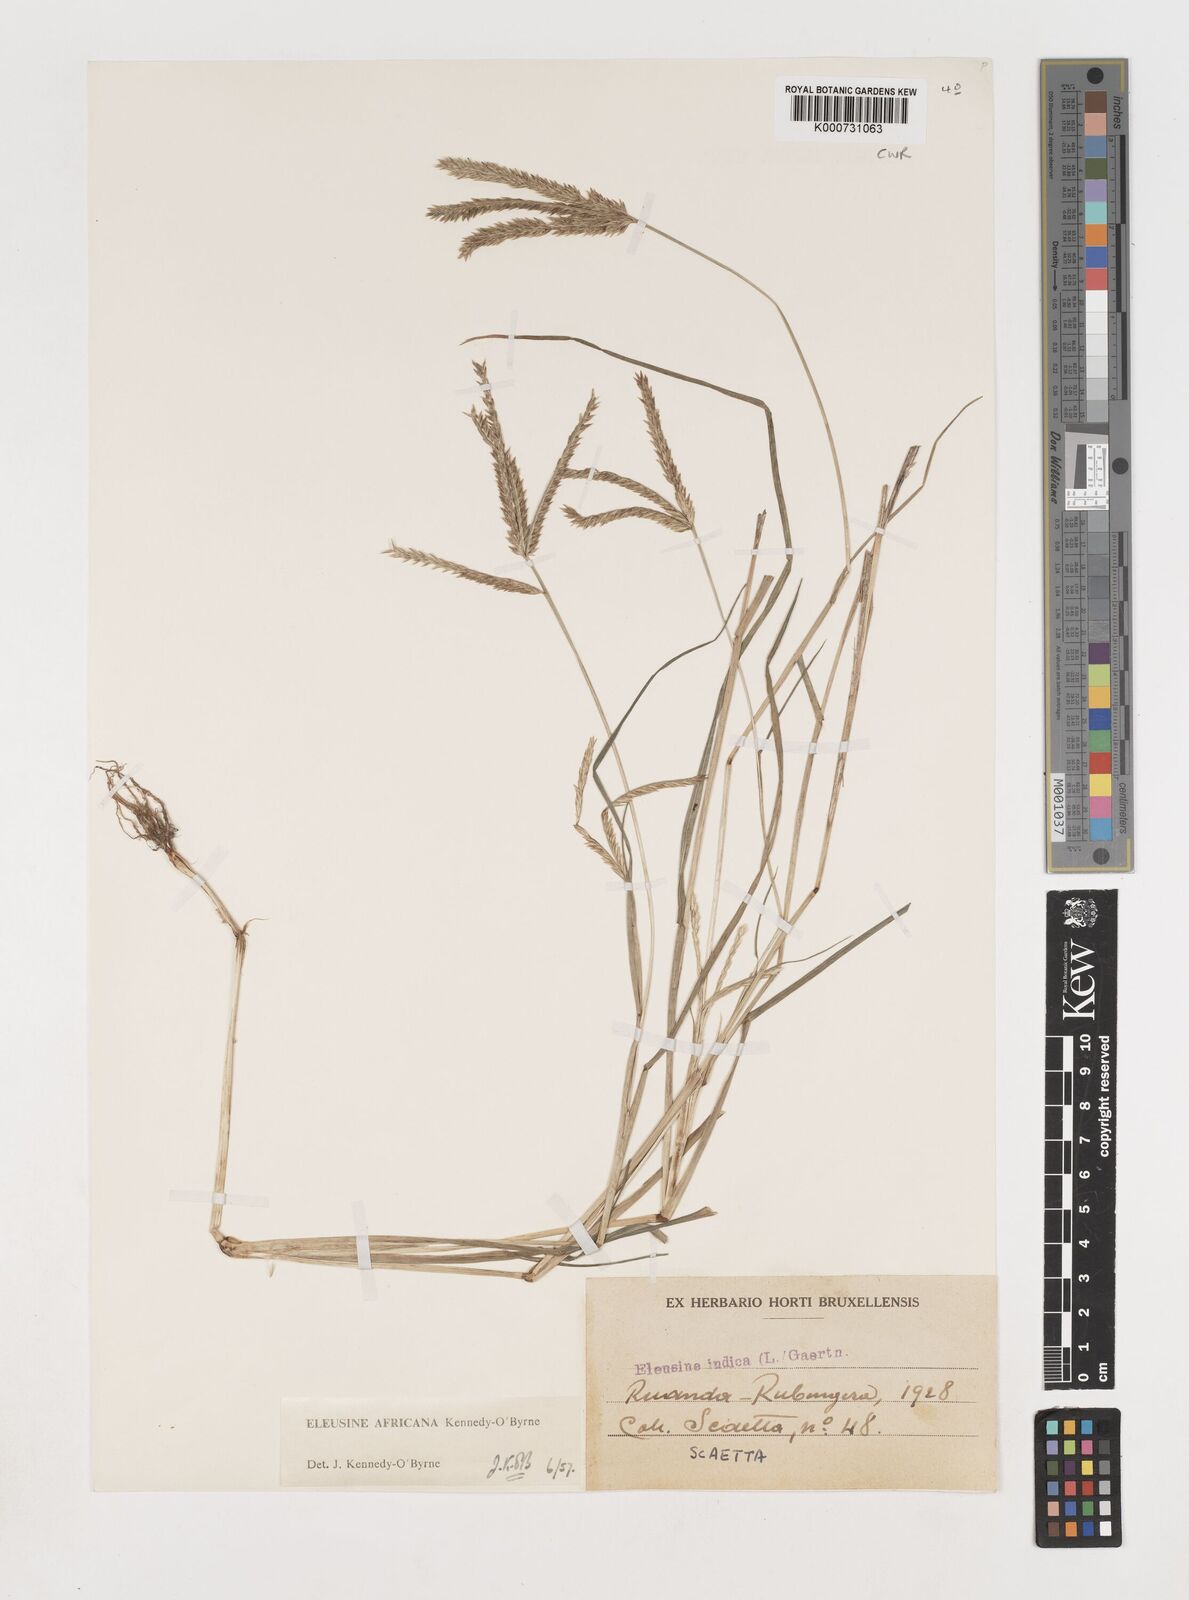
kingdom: Plantae
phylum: Tracheophyta
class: Liliopsida
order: Poales
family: Poaceae
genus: Eleusine
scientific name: Eleusine africana
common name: Wild african finger millet
